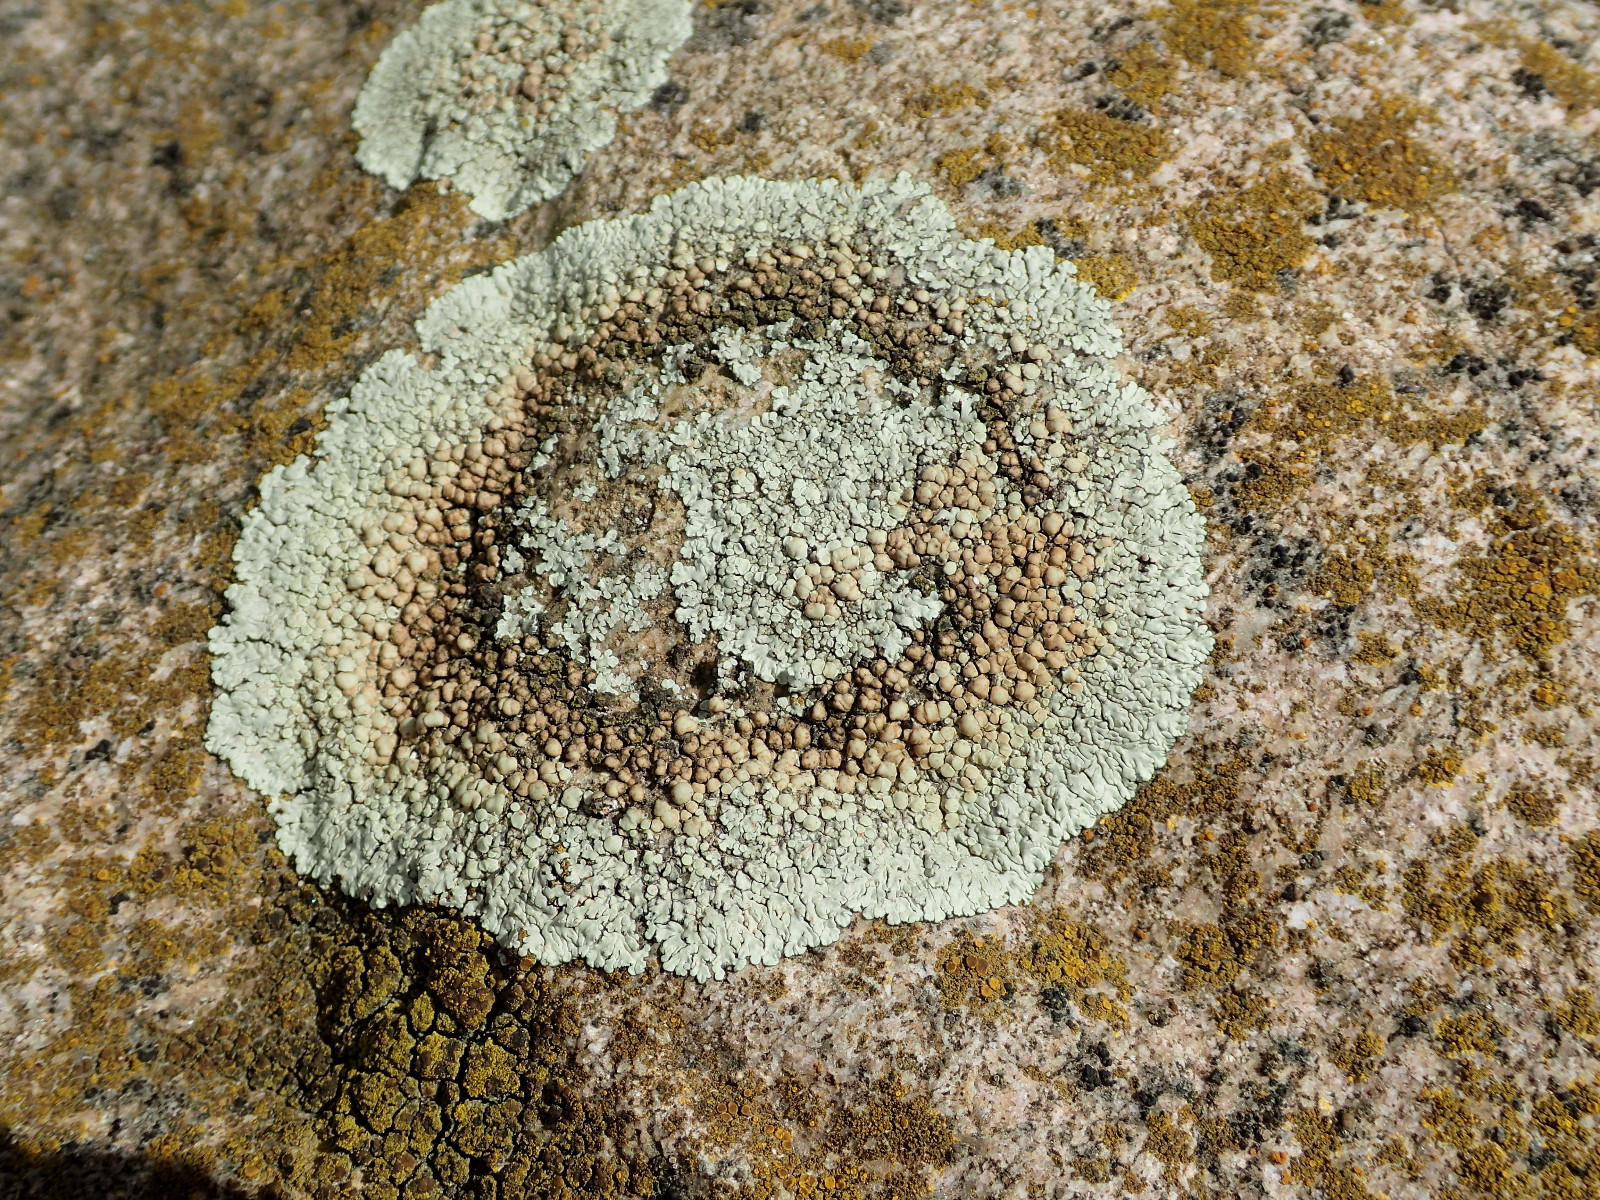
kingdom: Fungi
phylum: Ascomycota
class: Lecanoromycetes
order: Lecanorales
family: Lecanoraceae
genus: Protoparmeliopsis
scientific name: Protoparmeliopsis muralis
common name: randfliget kantskivelav
